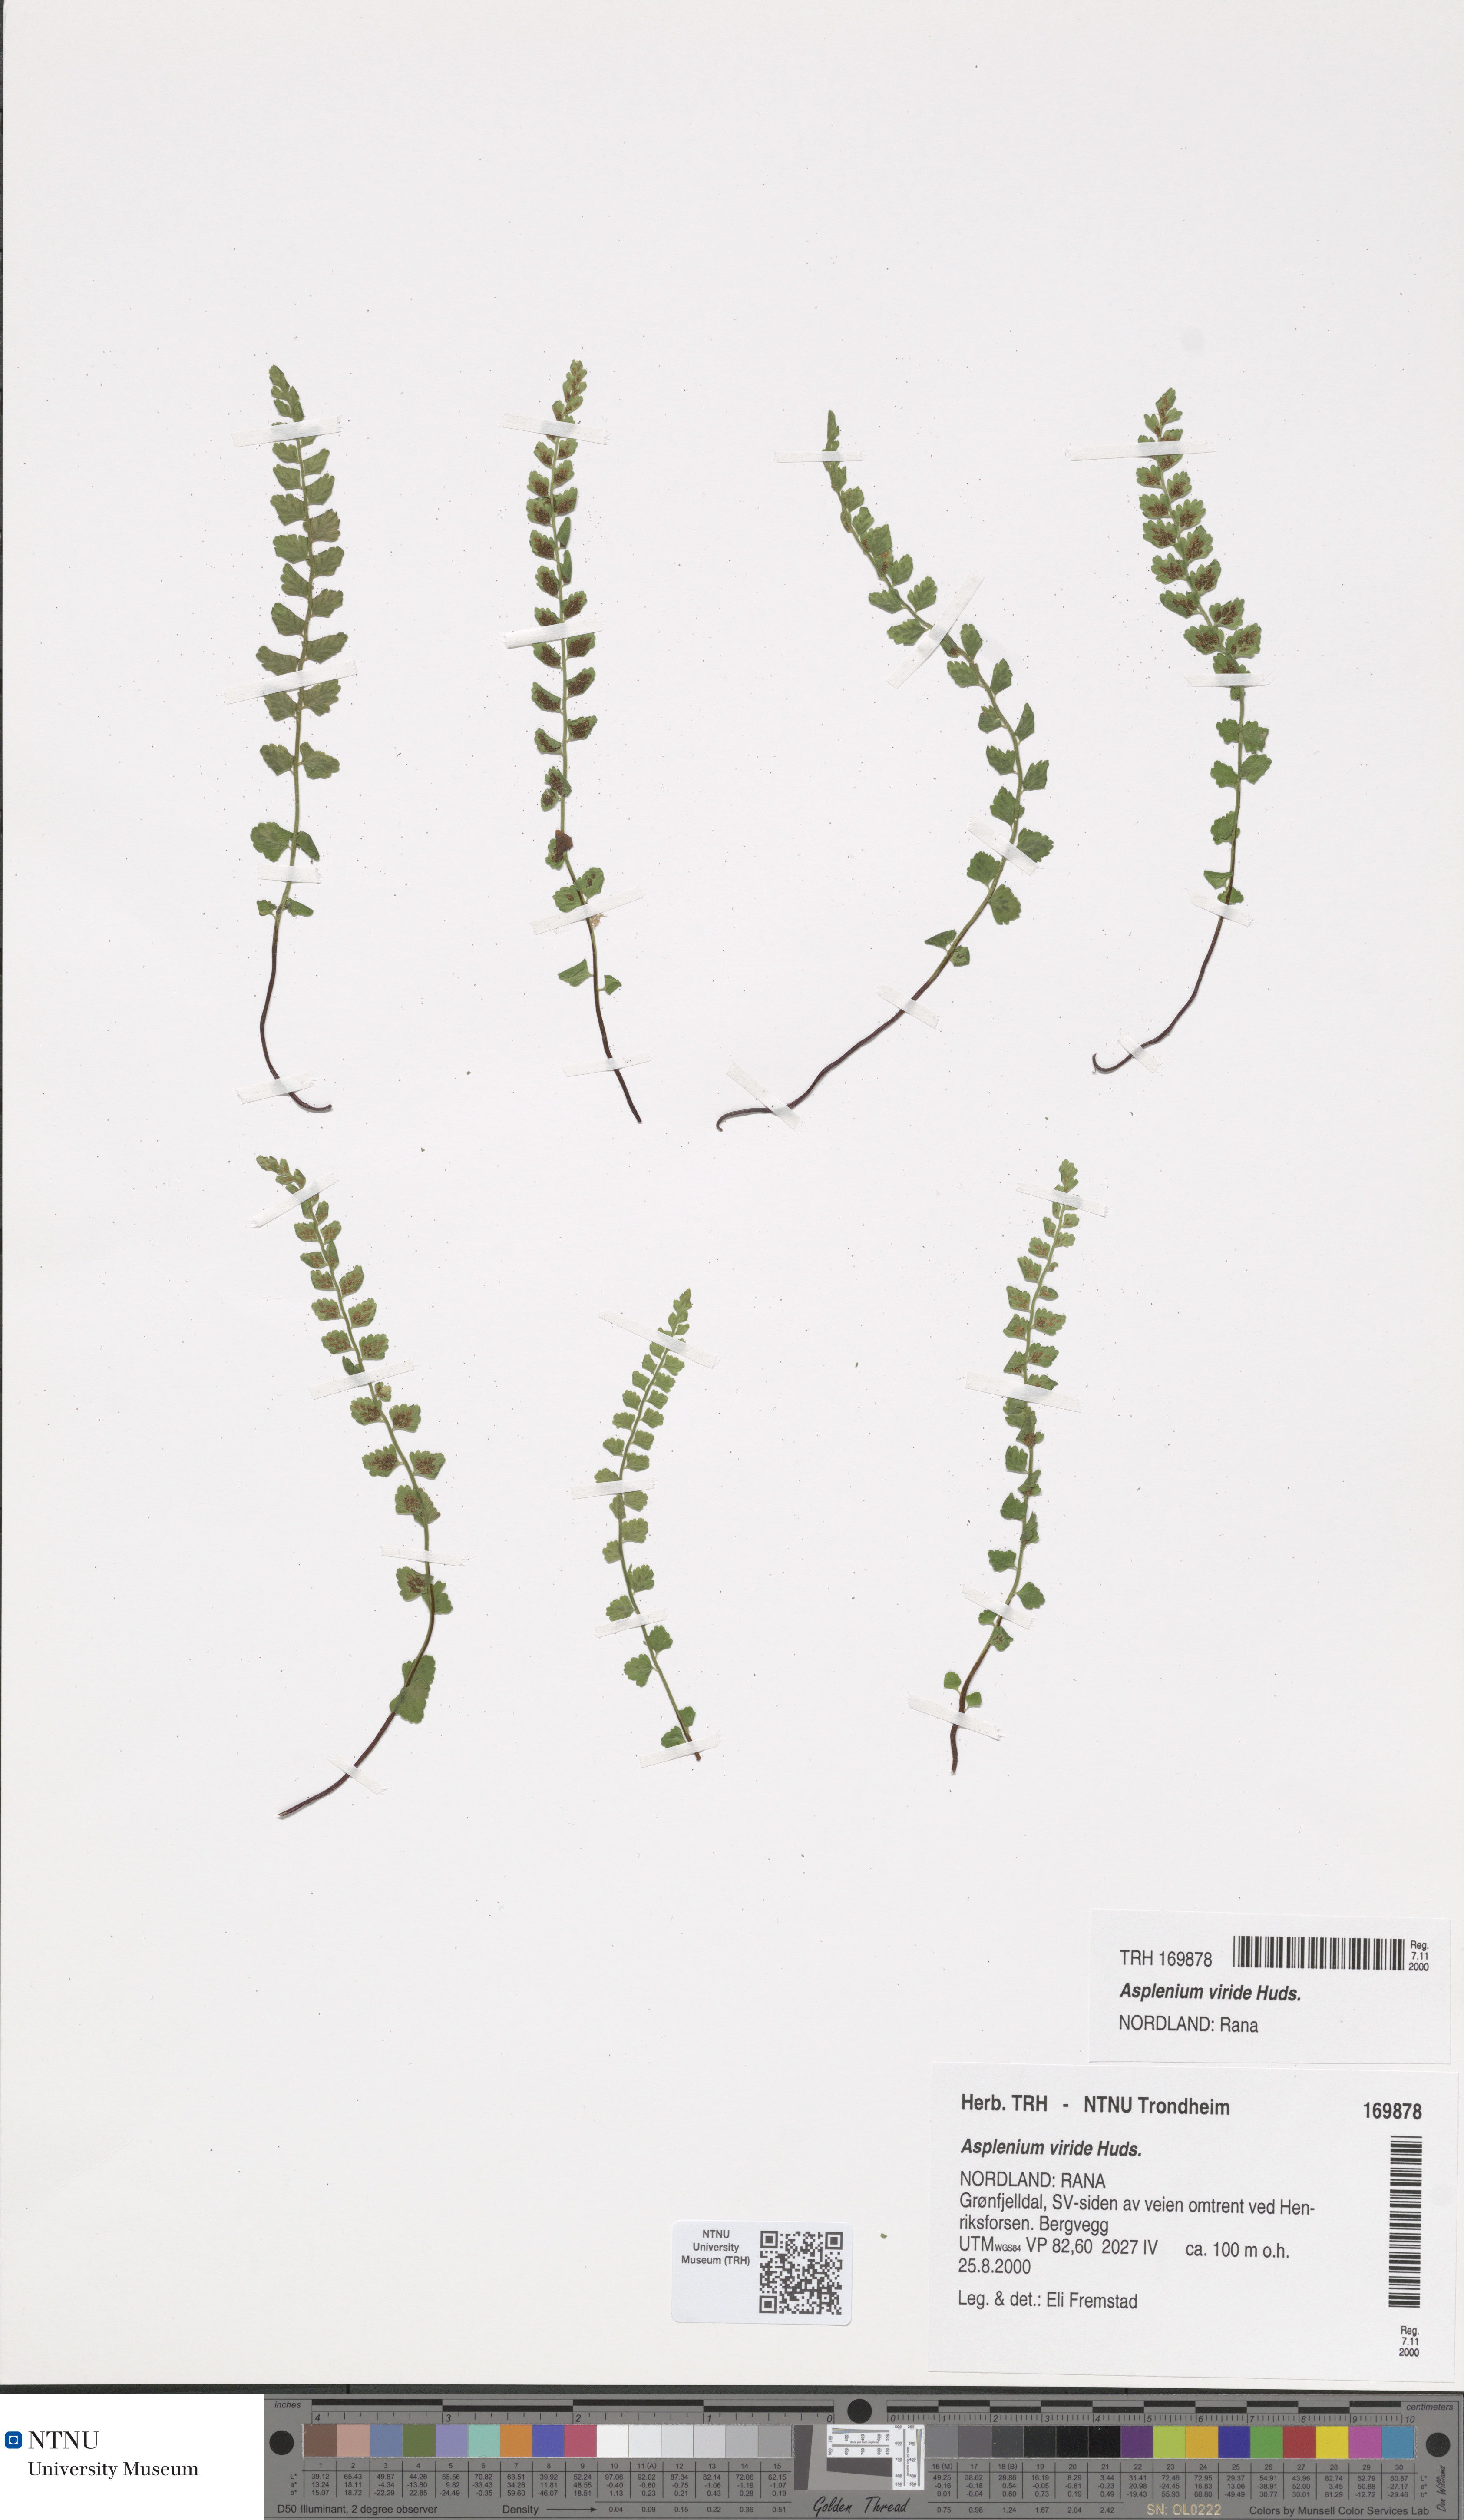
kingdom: Plantae
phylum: Tracheophyta
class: Polypodiopsida
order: Polypodiales
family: Aspleniaceae
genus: Asplenium
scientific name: Asplenium viride
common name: Green spleenwort
